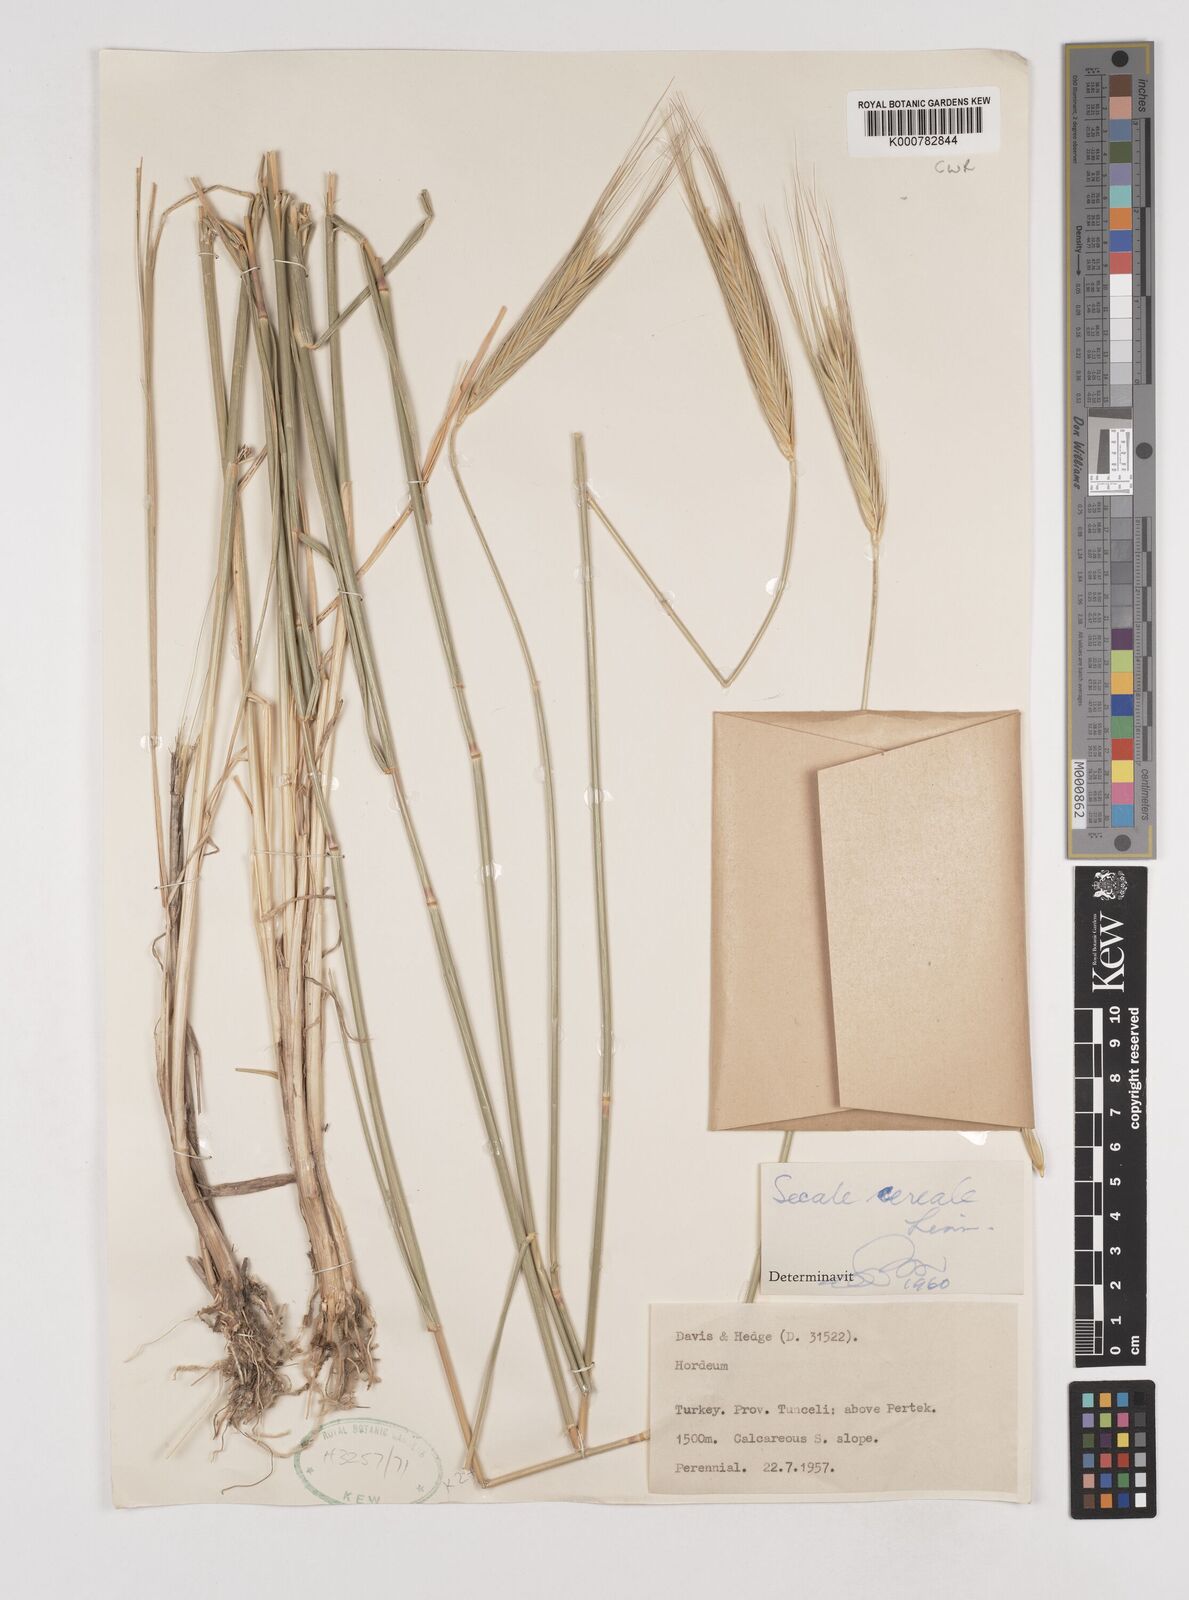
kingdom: Plantae
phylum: Tracheophyta
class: Liliopsida
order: Poales
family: Poaceae
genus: Secale
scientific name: Secale cereale
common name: Rye
